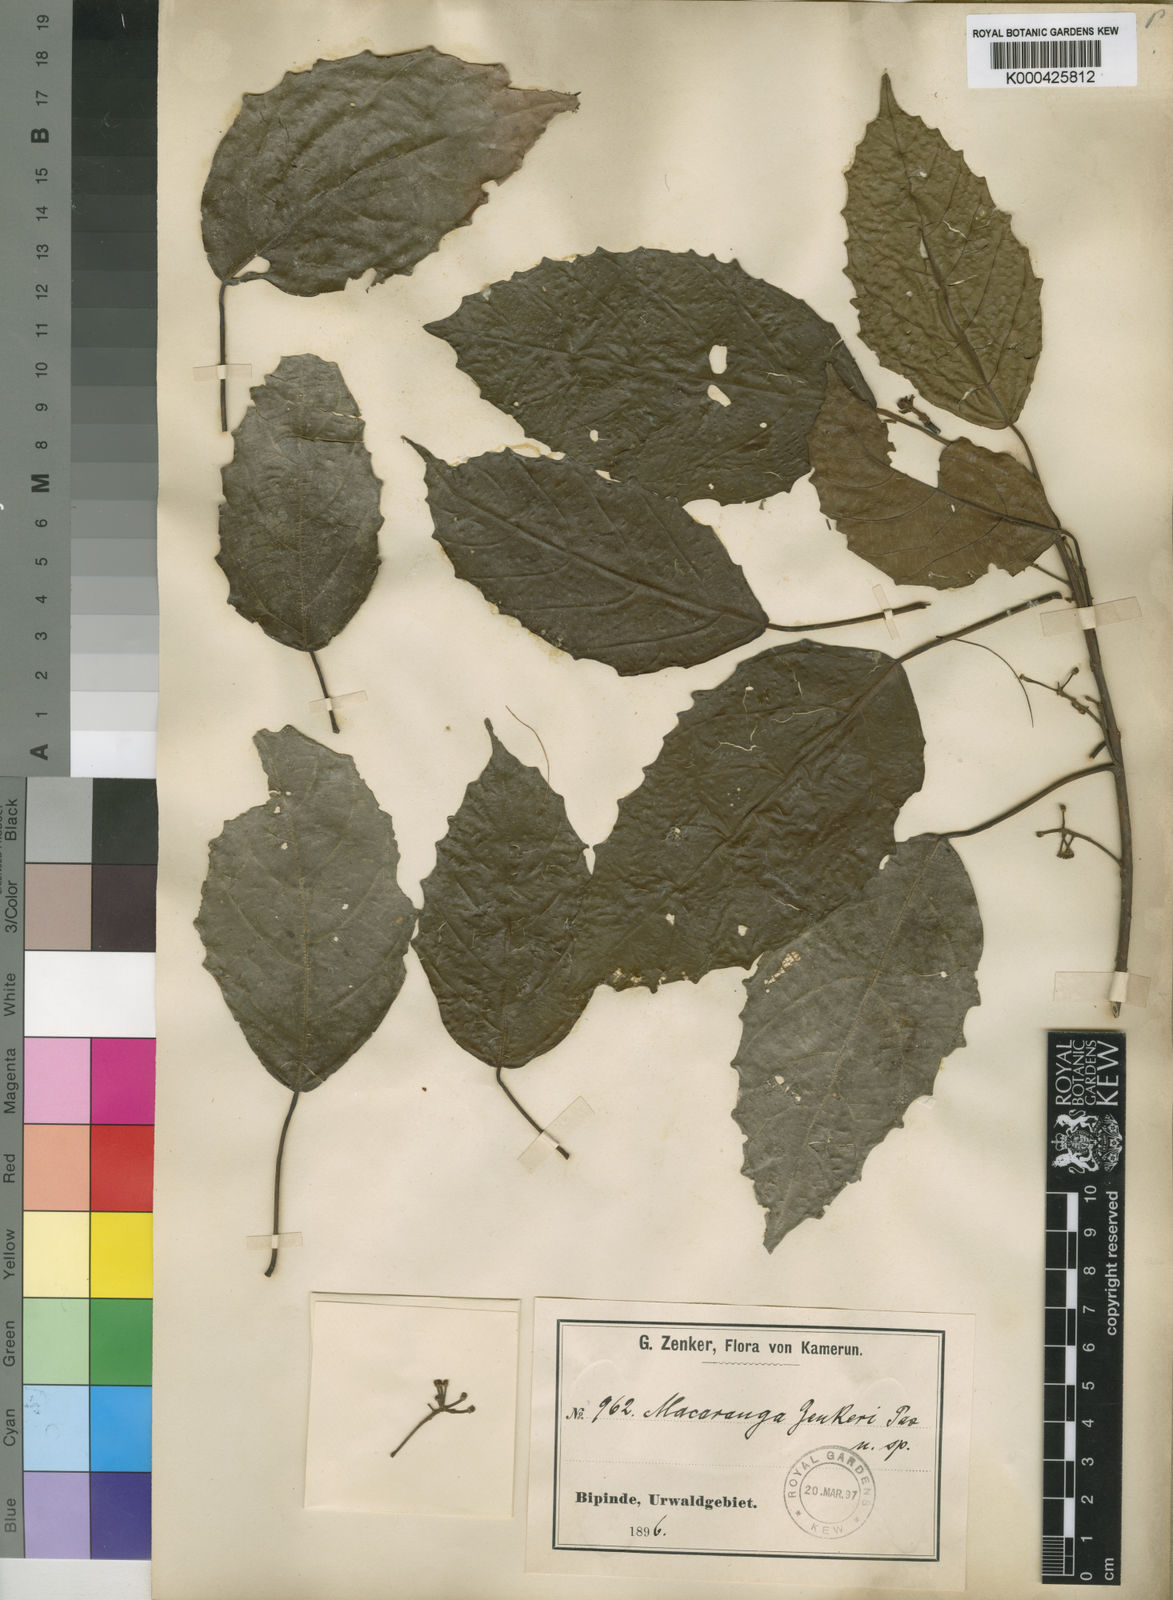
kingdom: Plantae
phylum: Tracheophyta
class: Magnoliopsida
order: Malpighiales
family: Euphorbiaceae
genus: Macaranga
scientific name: Macaranga
